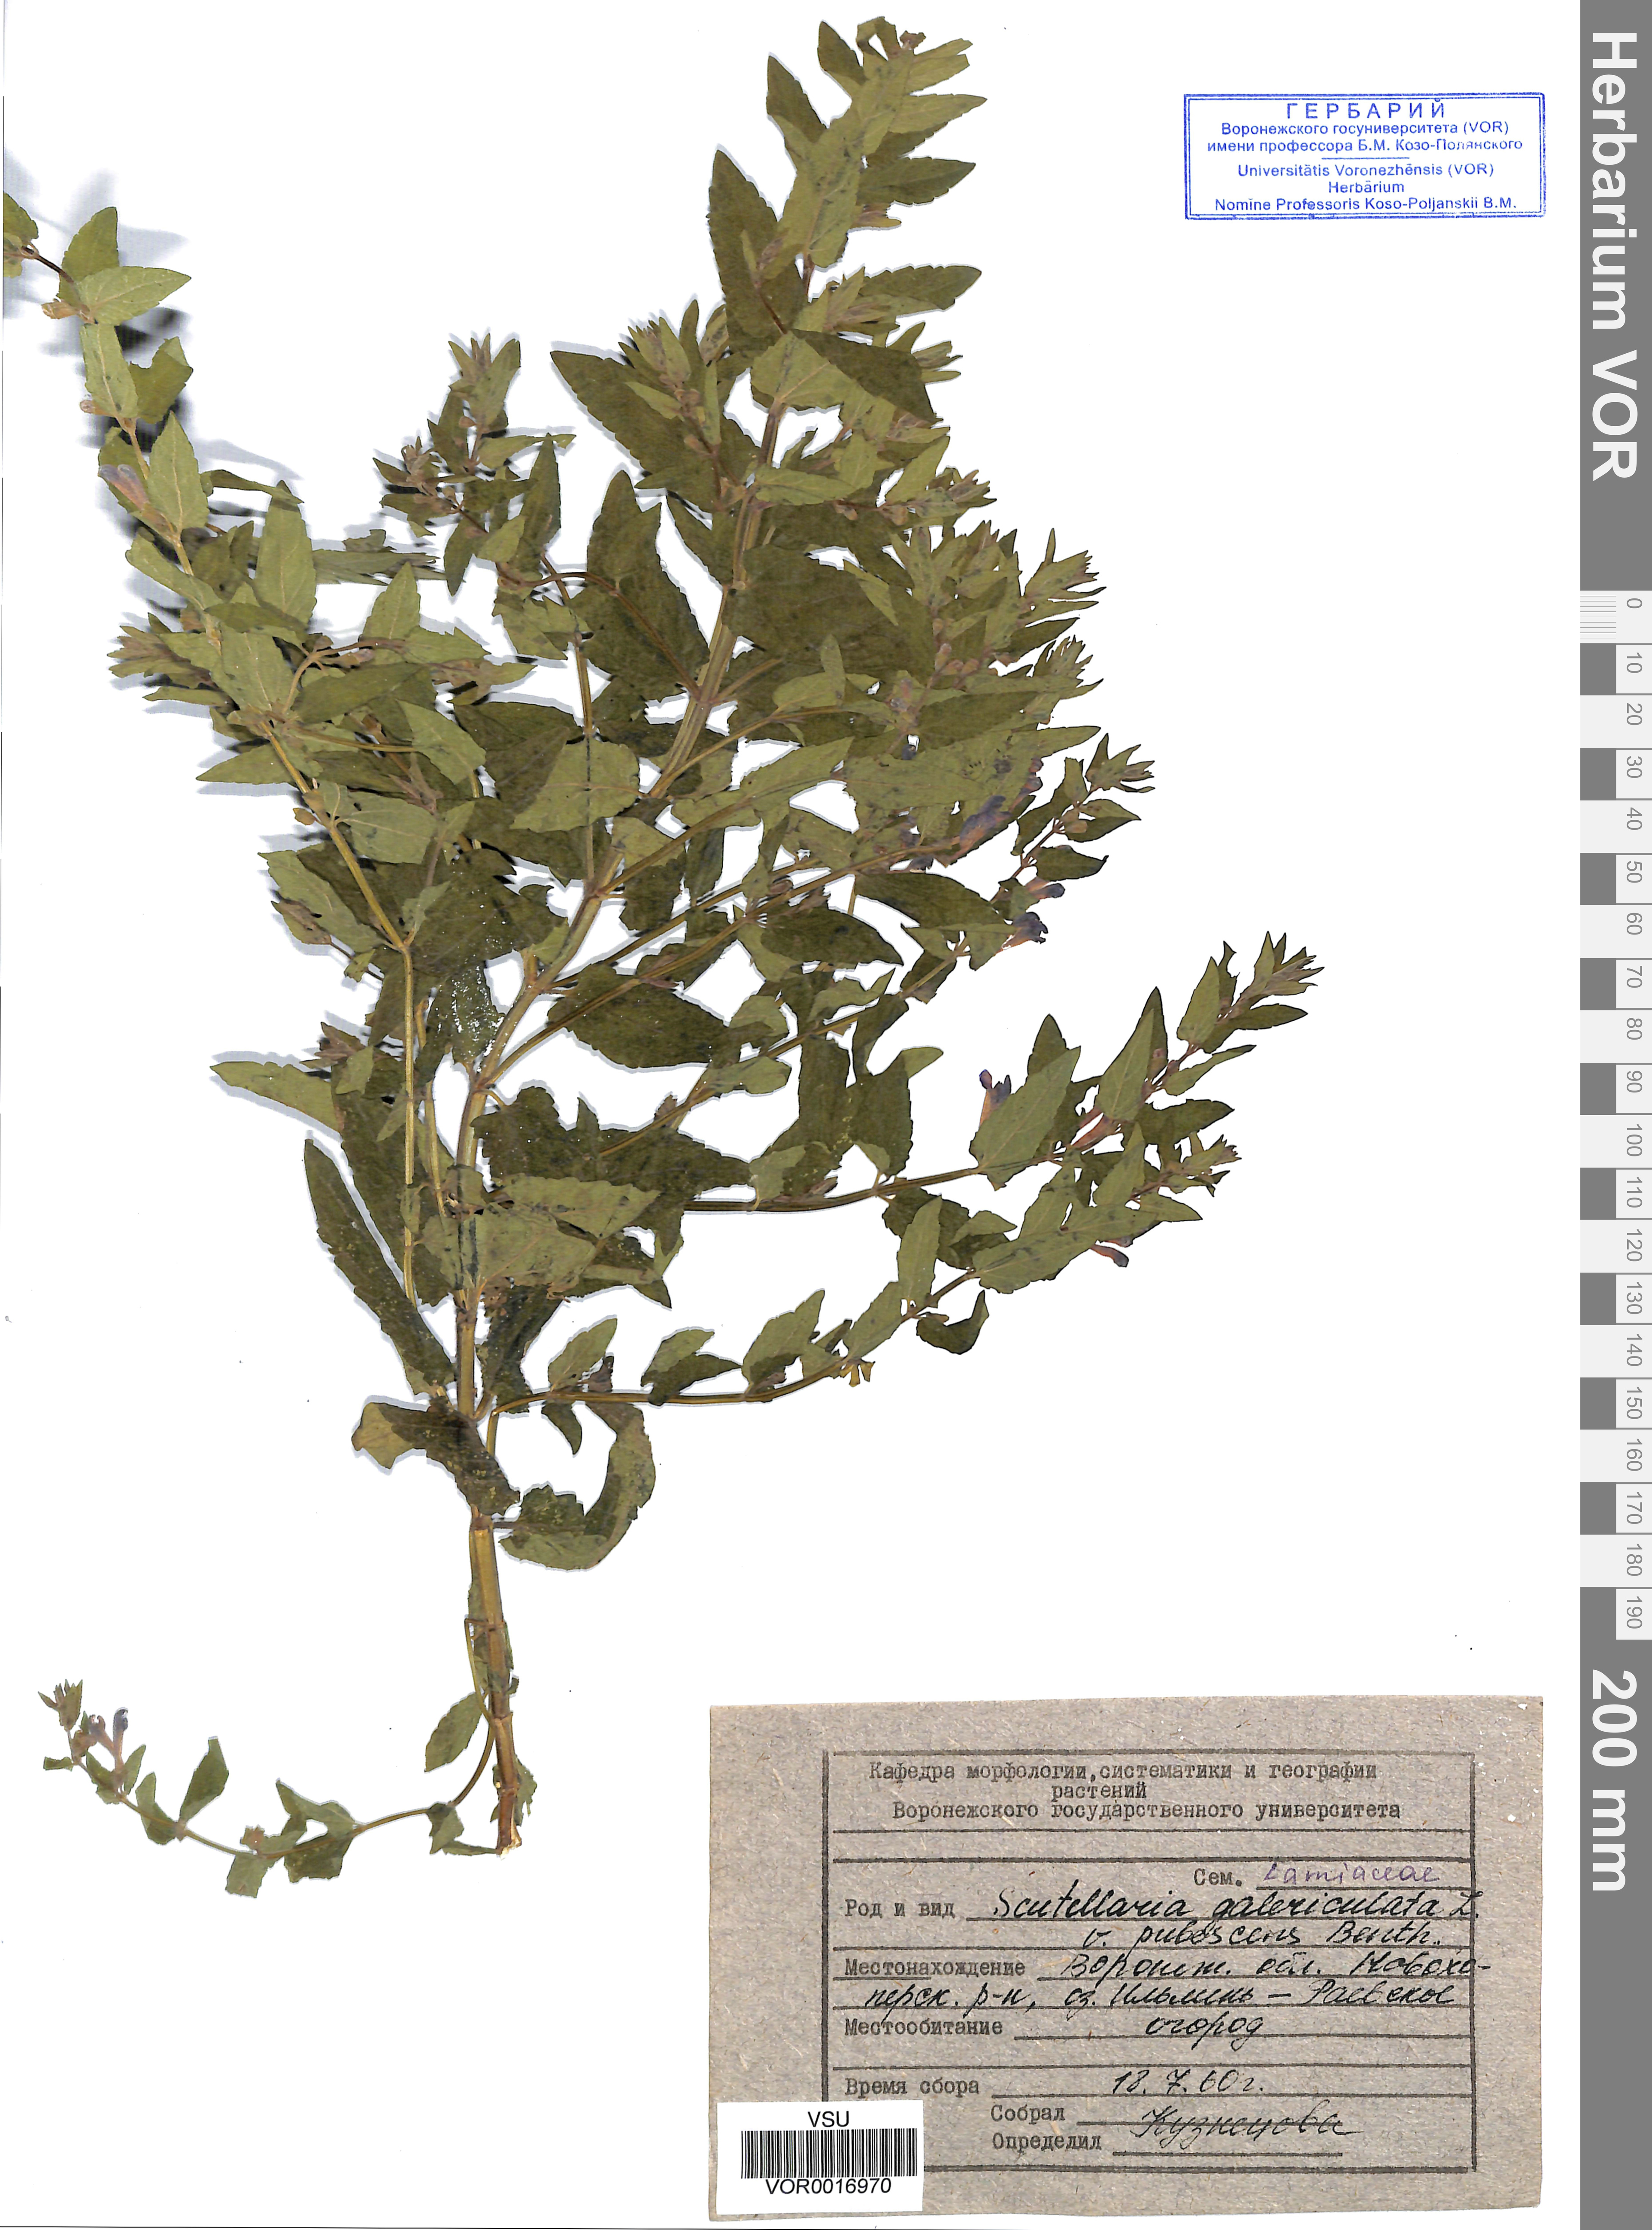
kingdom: Plantae
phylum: Tracheophyta
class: Magnoliopsida
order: Lamiales
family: Lamiaceae
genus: Scutellaria
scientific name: Scutellaria galericulata
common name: Skullcap
